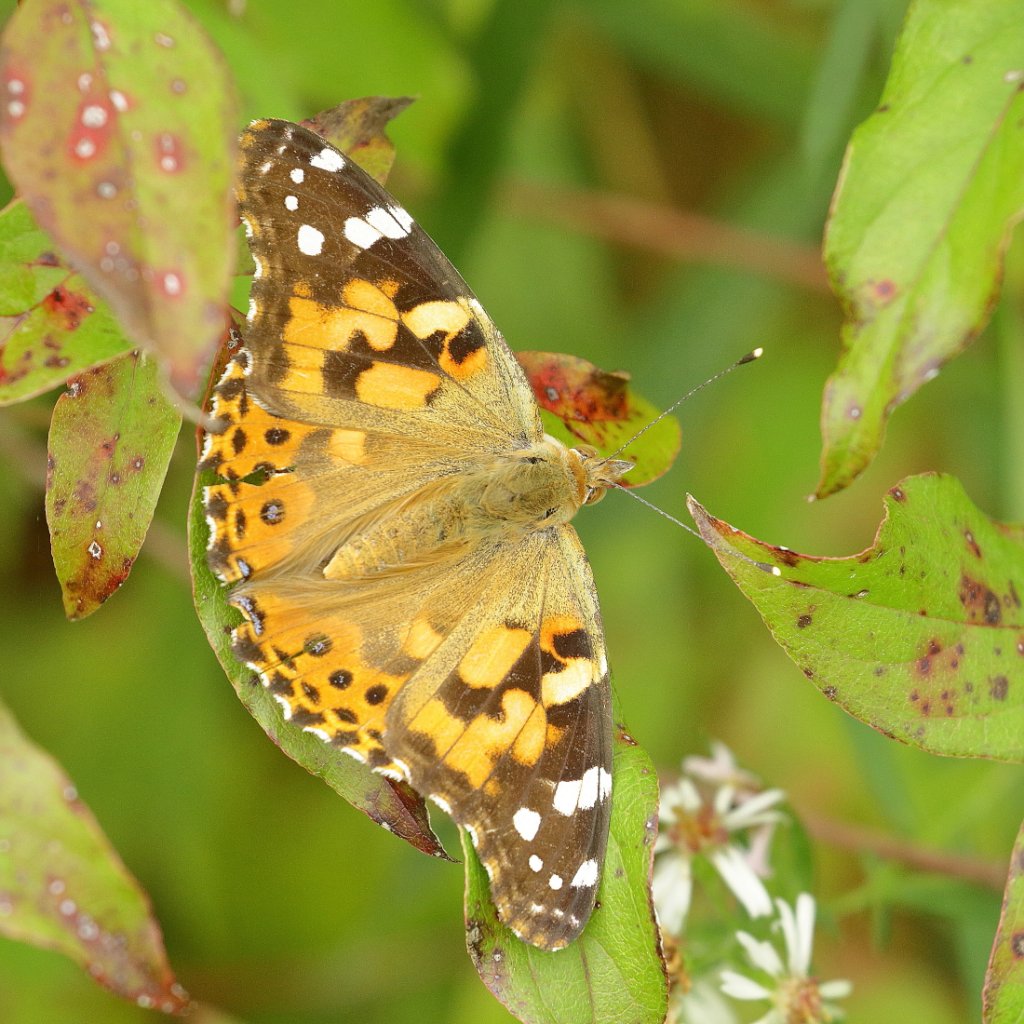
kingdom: Animalia
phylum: Arthropoda
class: Insecta
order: Lepidoptera
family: Nymphalidae
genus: Vanessa
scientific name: Vanessa cardui
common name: Painted Lady
